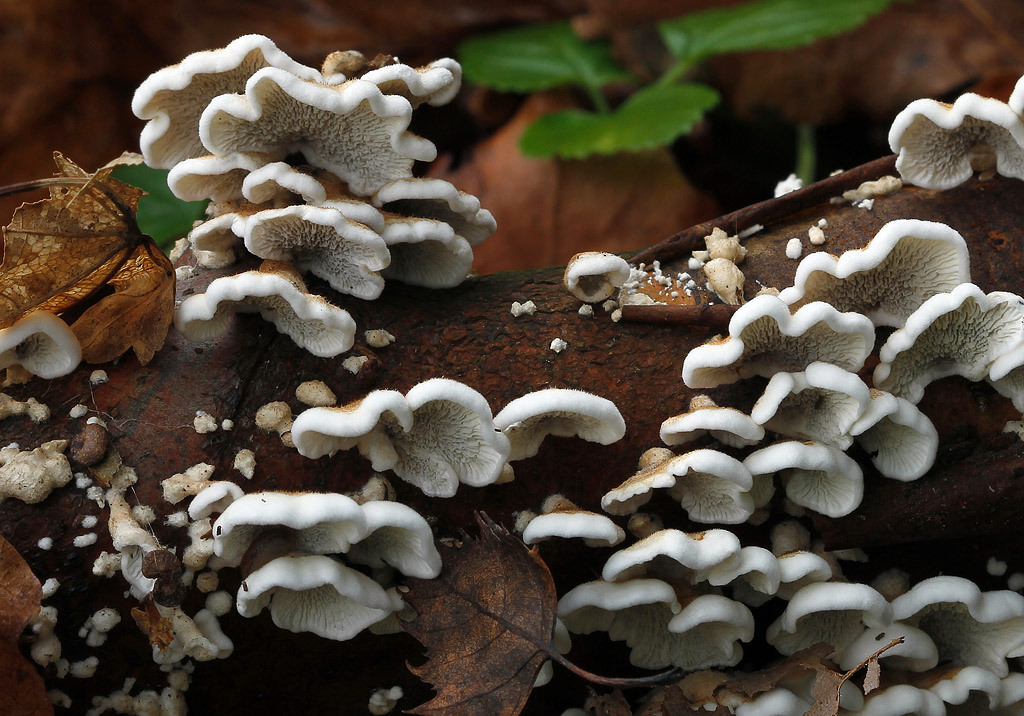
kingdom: Fungi
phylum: Basidiomycota
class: Agaricomycetes
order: Amylocorticiales
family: Amylocorticiaceae
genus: Plicaturopsis
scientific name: Plicaturopsis crispa
